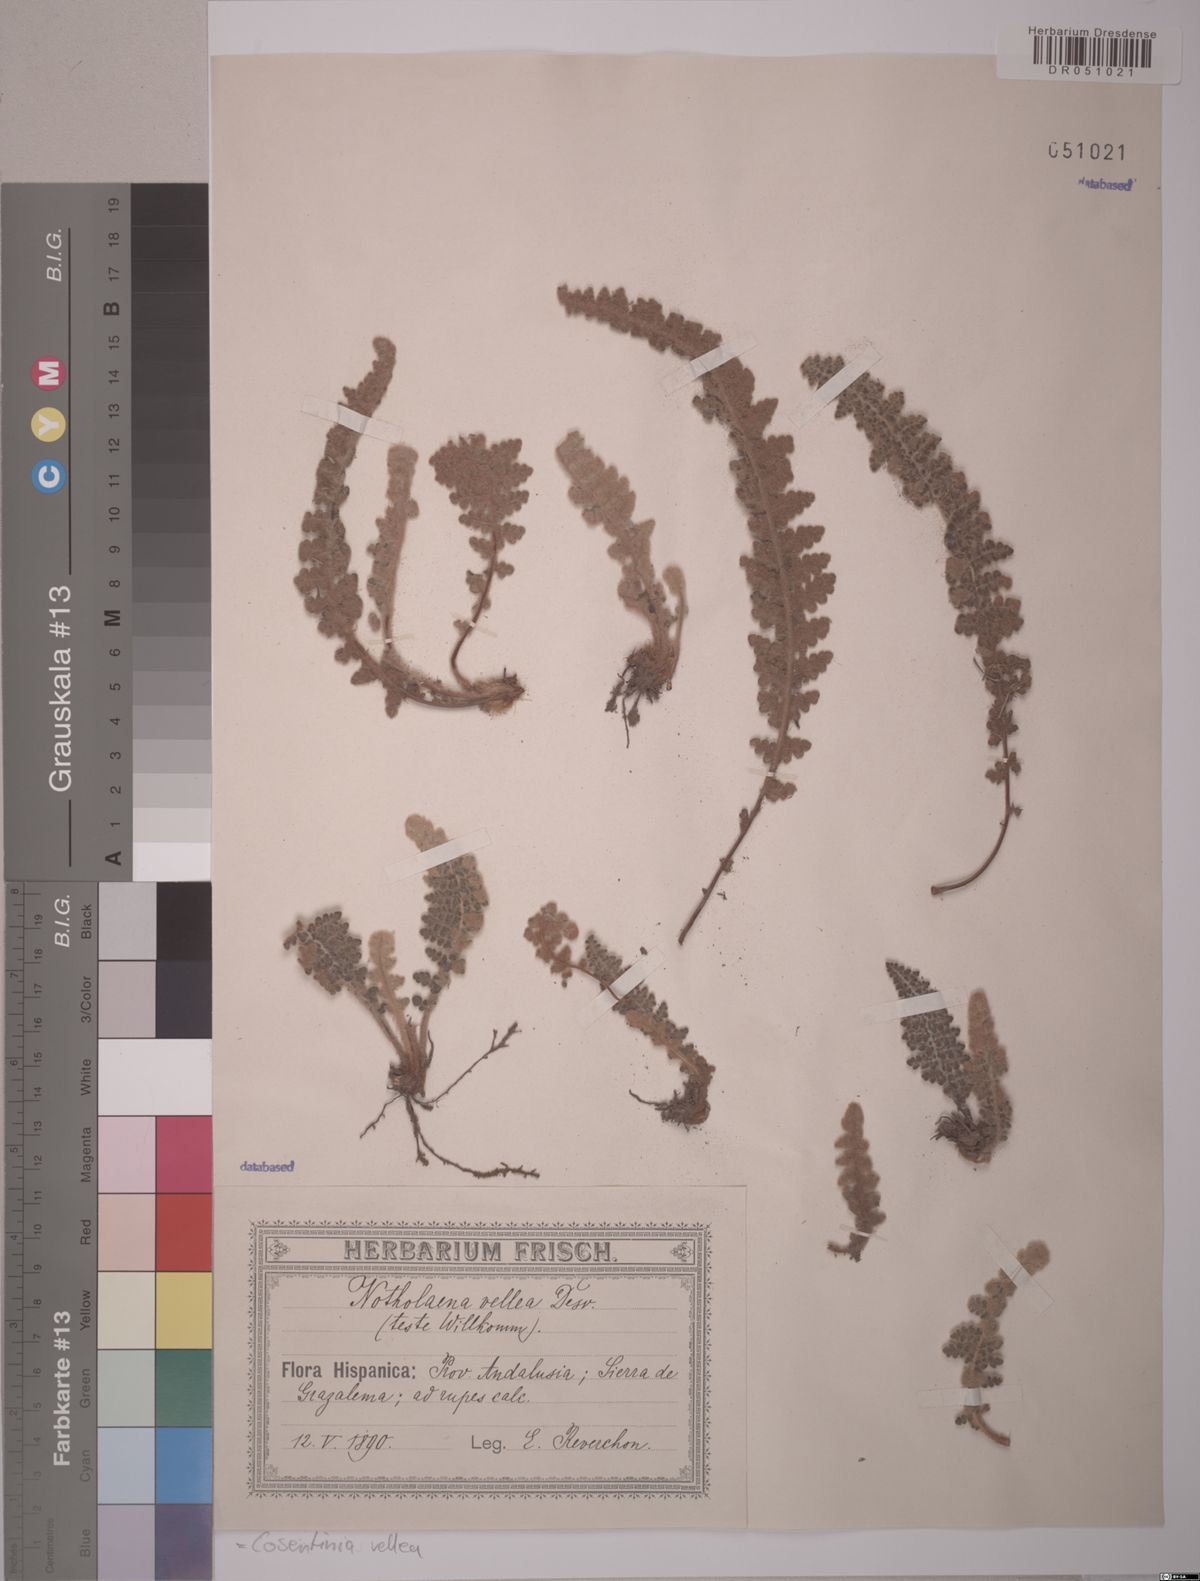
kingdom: Plantae
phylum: Tracheophyta
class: Polypodiopsida
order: Polypodiales
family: Pteridaceae
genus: Cosentinia
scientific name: Cosentinia vellea
